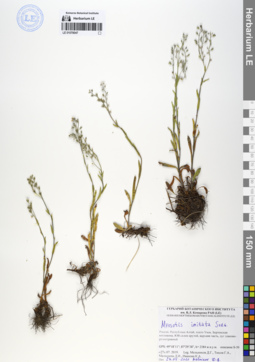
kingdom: Plantae
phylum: Tracheophyta
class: Magnoliopsida
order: Boraginales
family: Boraginaceae
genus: Myosotis
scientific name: Myosotis imitata
